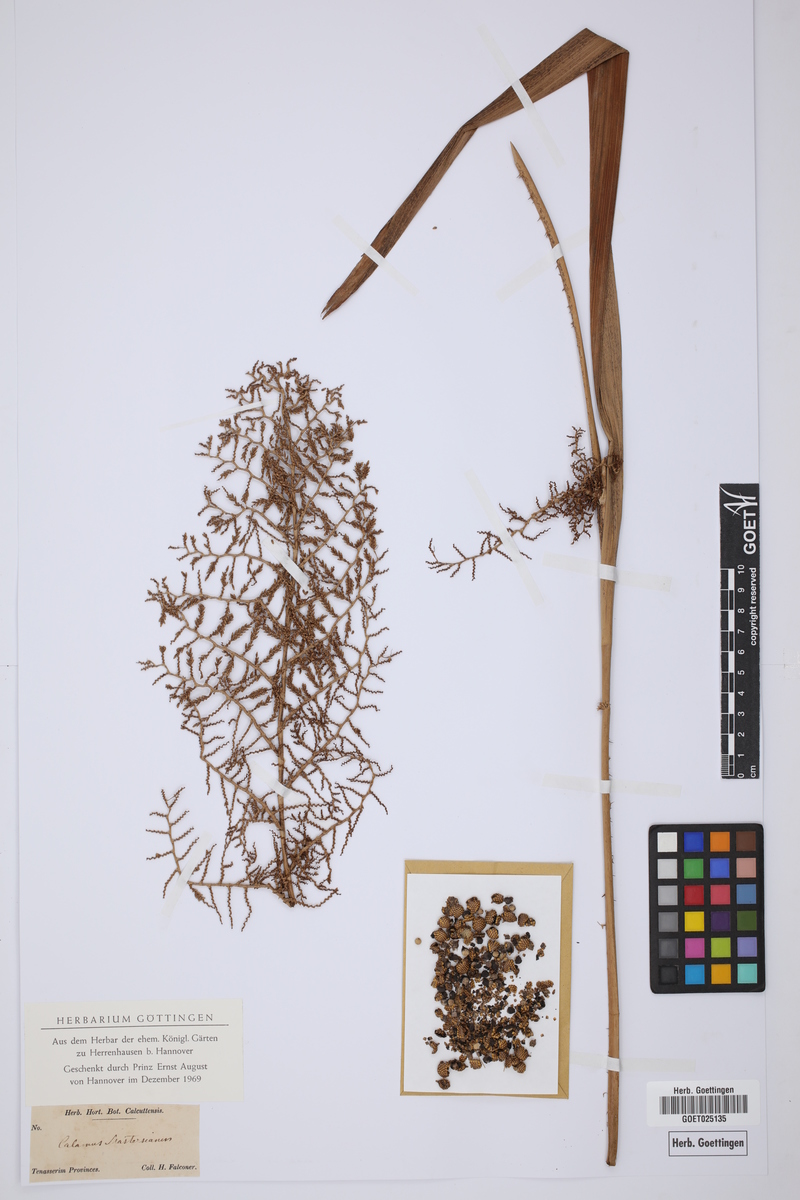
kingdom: Plantae
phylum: Tracheophyta
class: Liliopsida
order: Arecales
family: Arecaceae
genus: Calamus
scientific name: Calamus guruba
